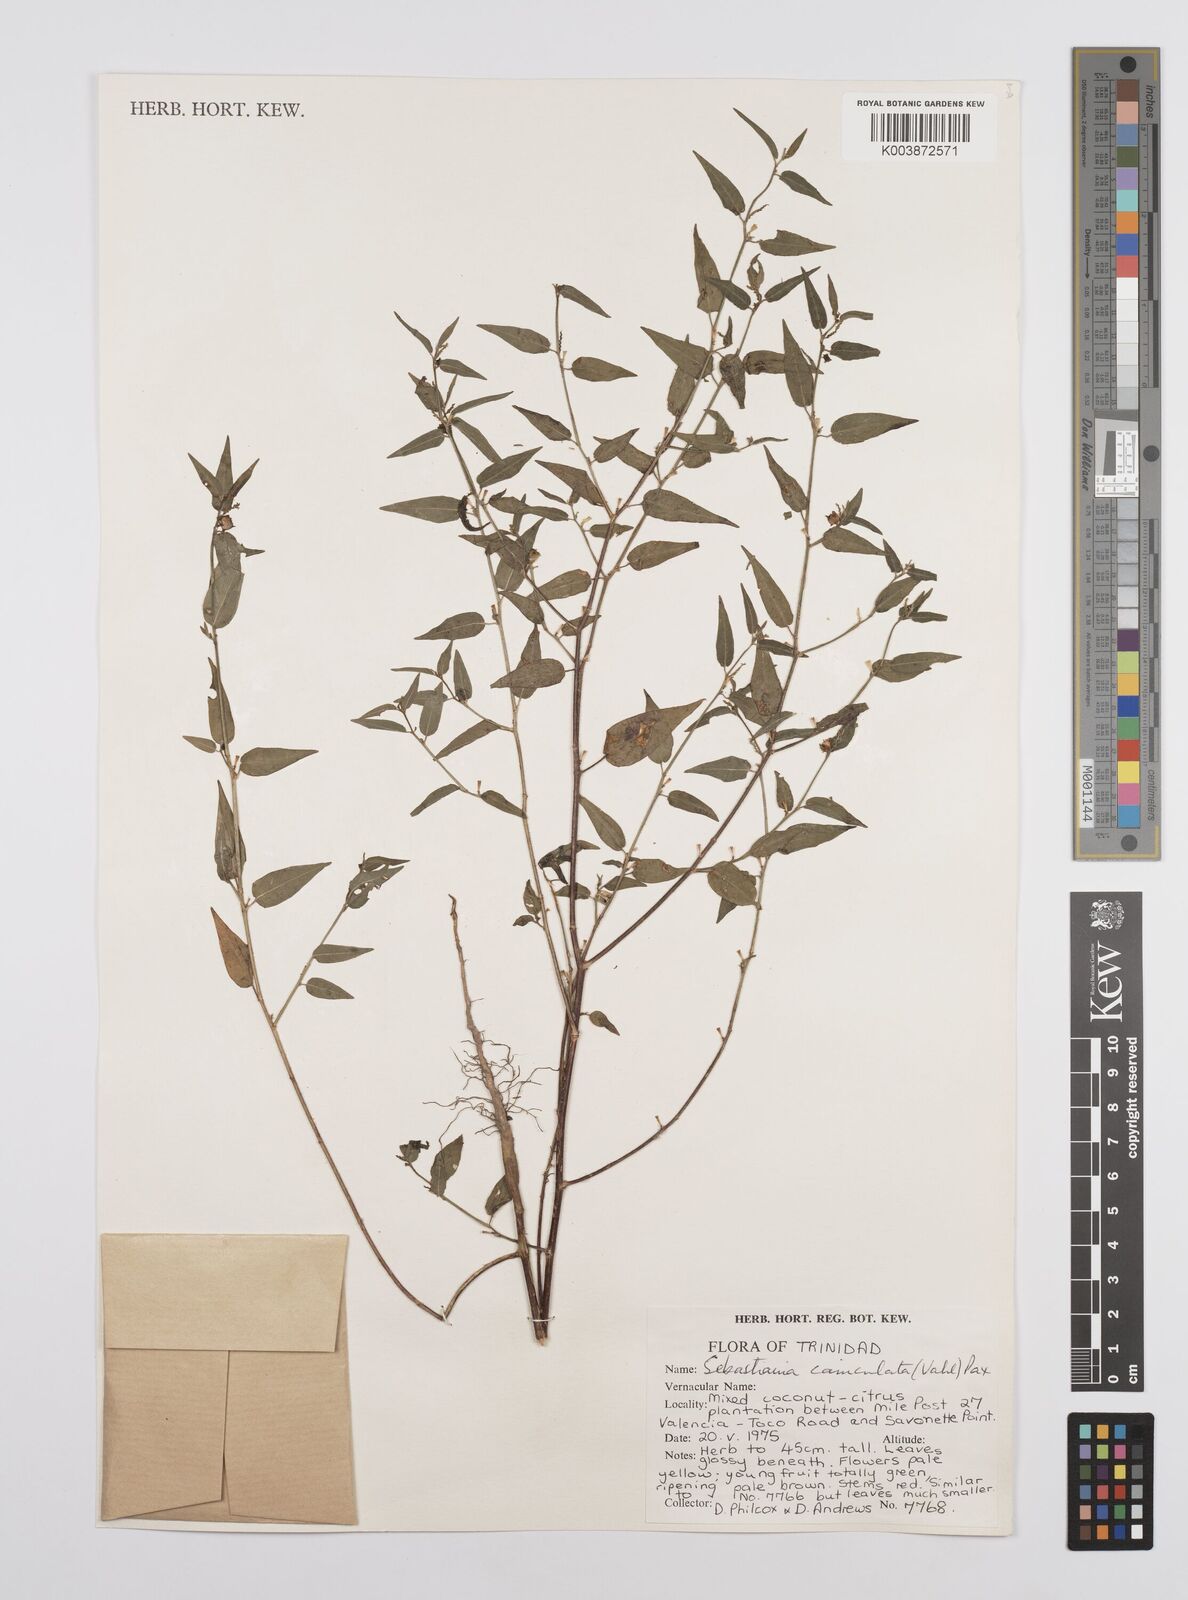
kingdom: Plantae
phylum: Tracheophyta
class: Magnoliopsida
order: Malpighiales
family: Euphorbiaceae
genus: Microstachys
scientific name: Microstachys corniculata
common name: Hato tejas
